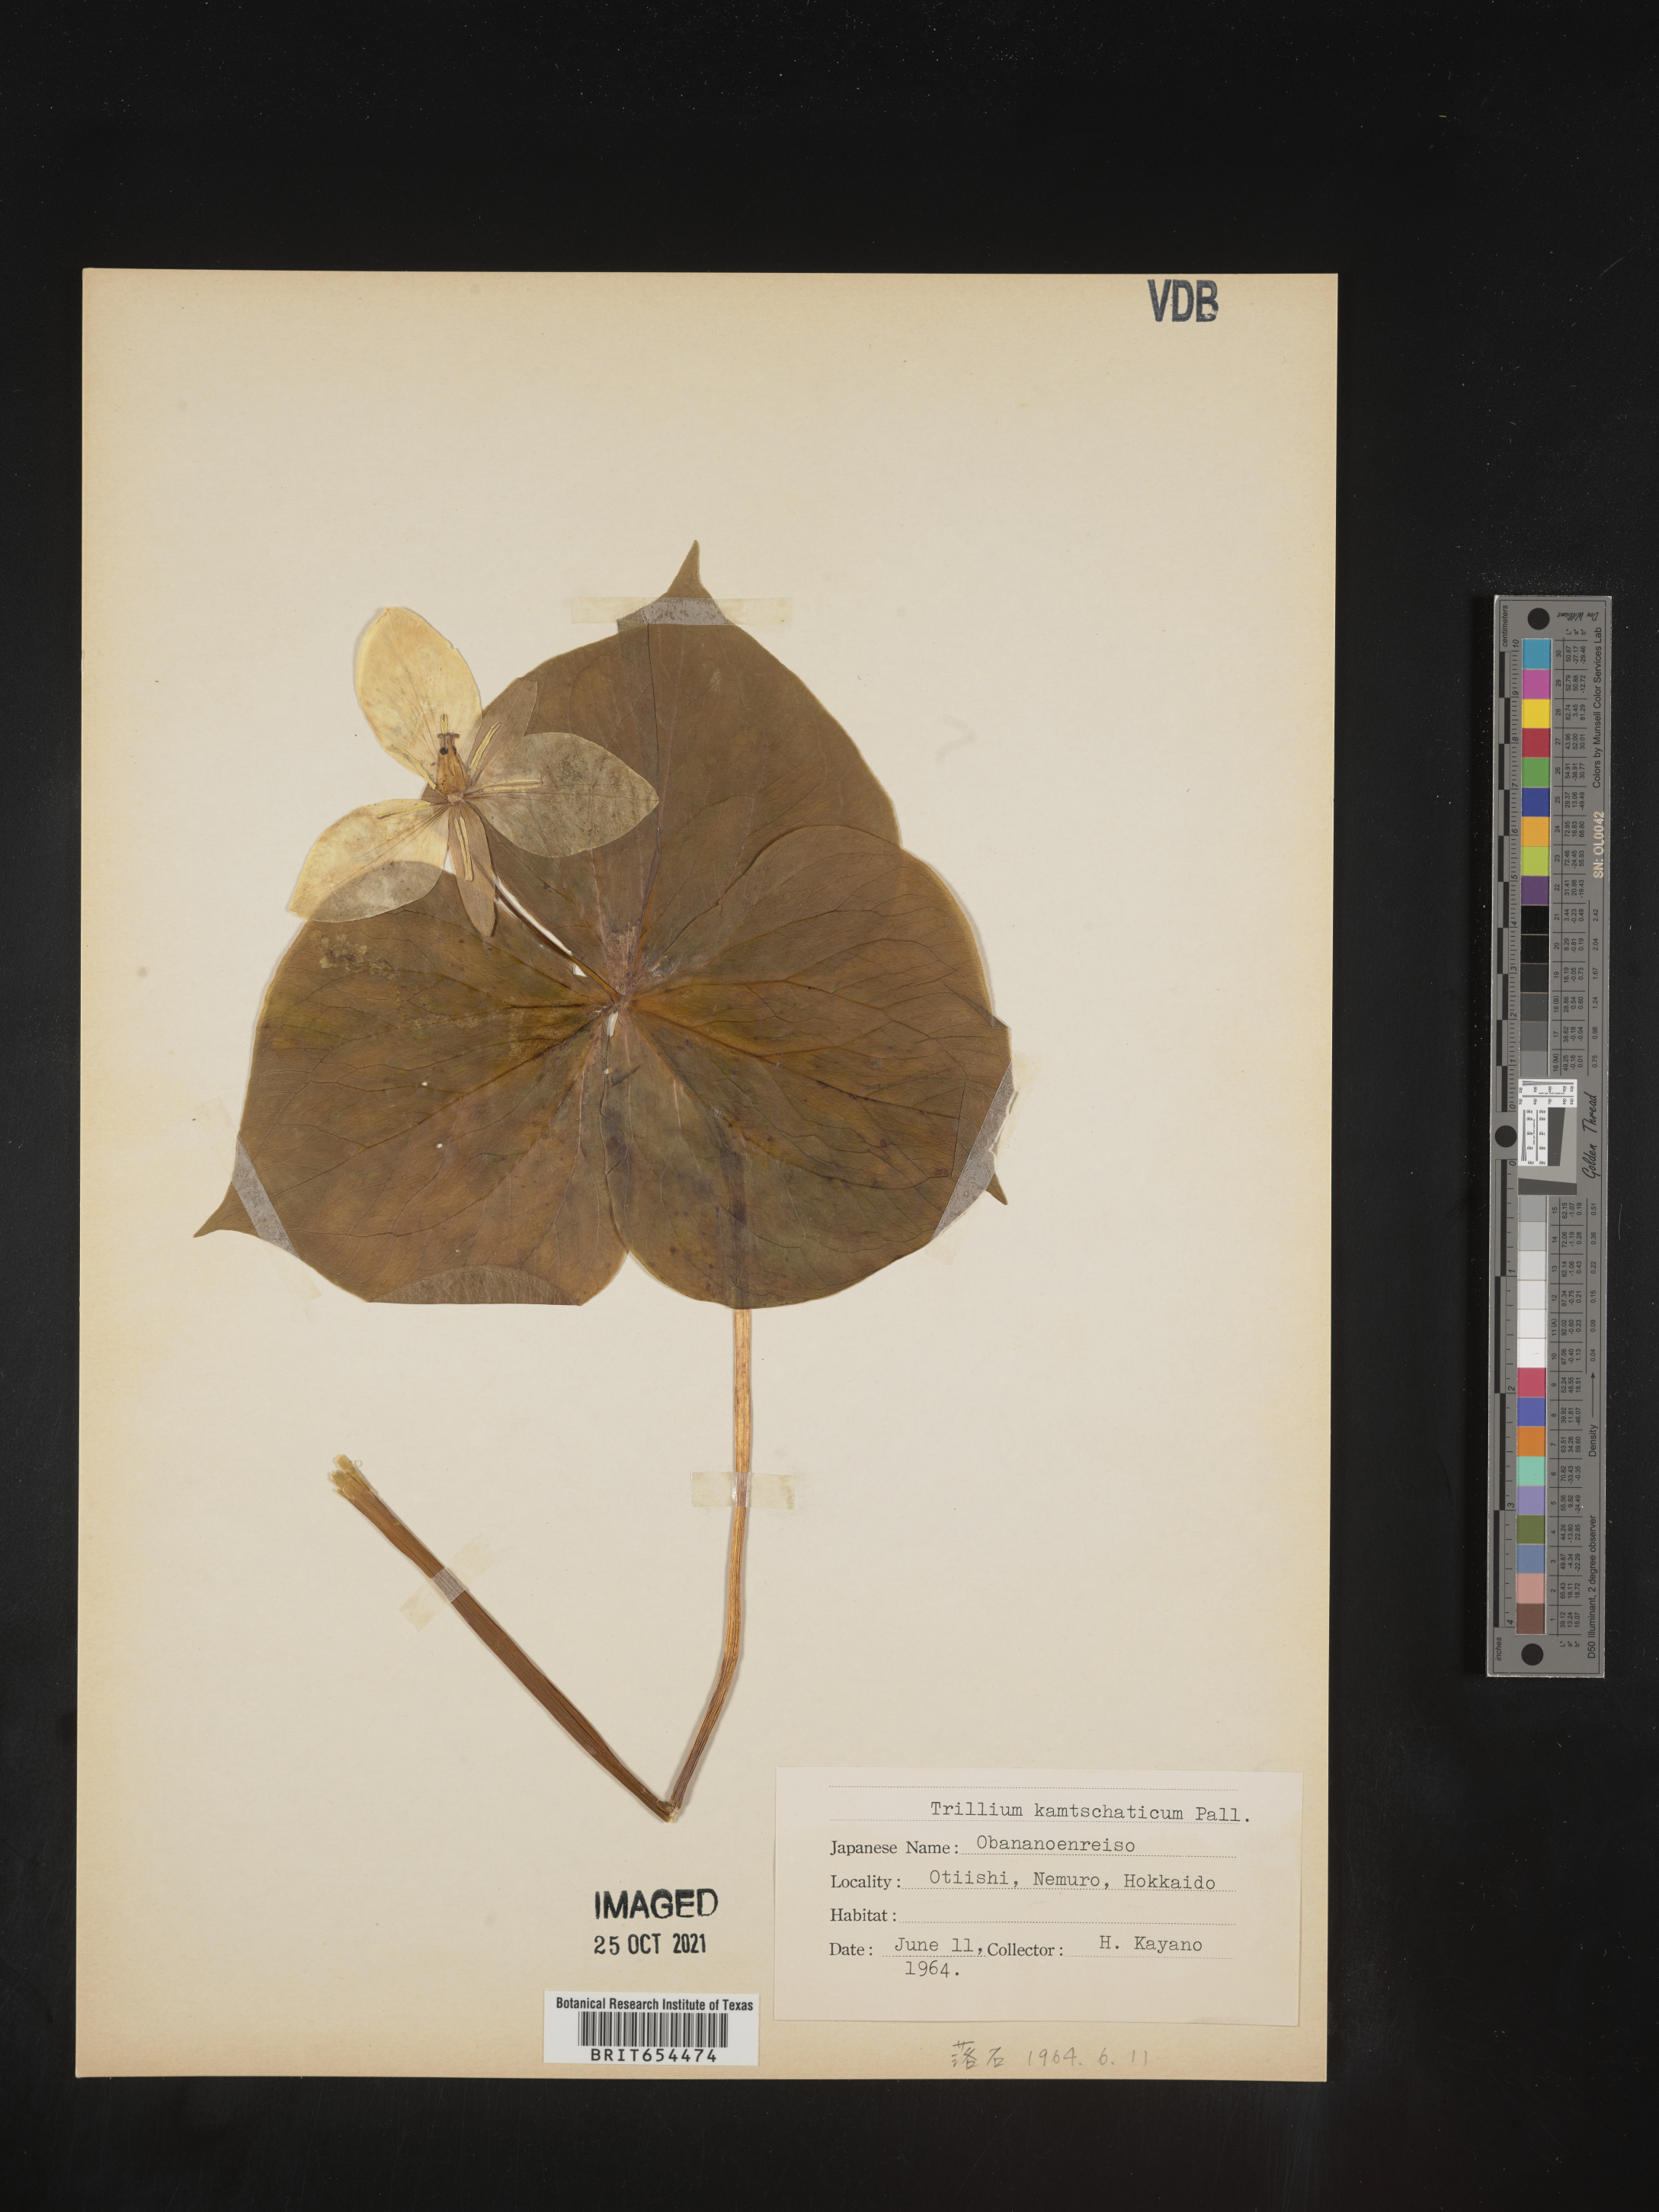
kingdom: Plantae
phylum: Tracheophyta
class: Liliopsida
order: Liliales
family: Melanthiaceae
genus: Trillium
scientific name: Trillium
